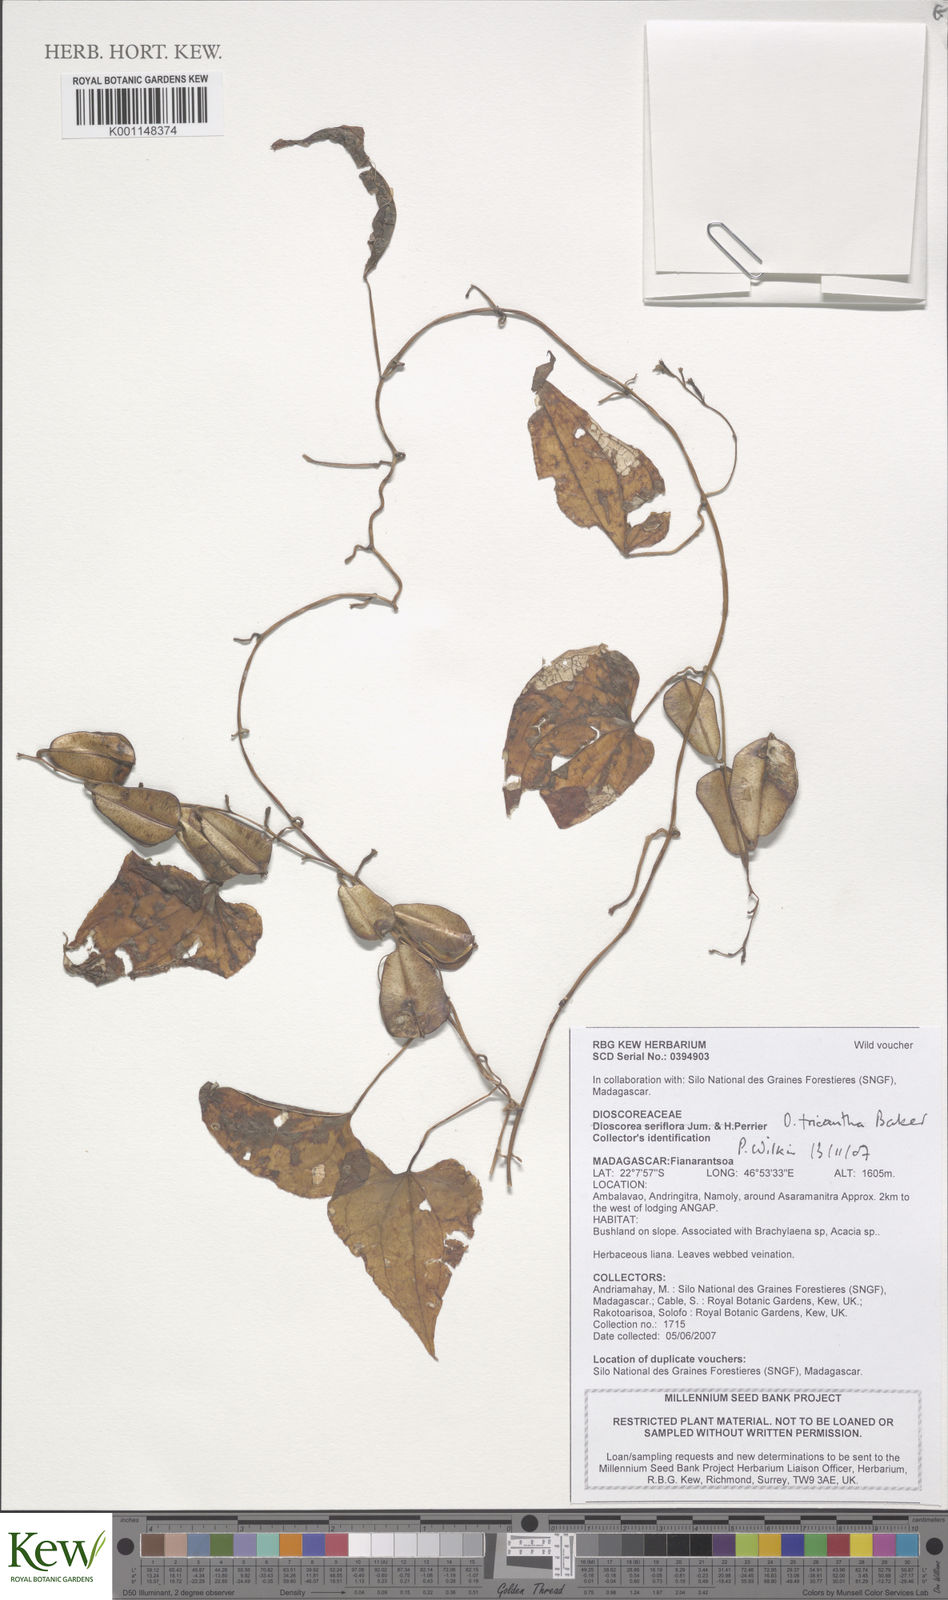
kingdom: Plantae
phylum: Tracheophyta
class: Liliopsida
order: Dioscoreales
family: Dioscoreaceae
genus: Dioscorea
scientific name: Dioscorea trichantha
